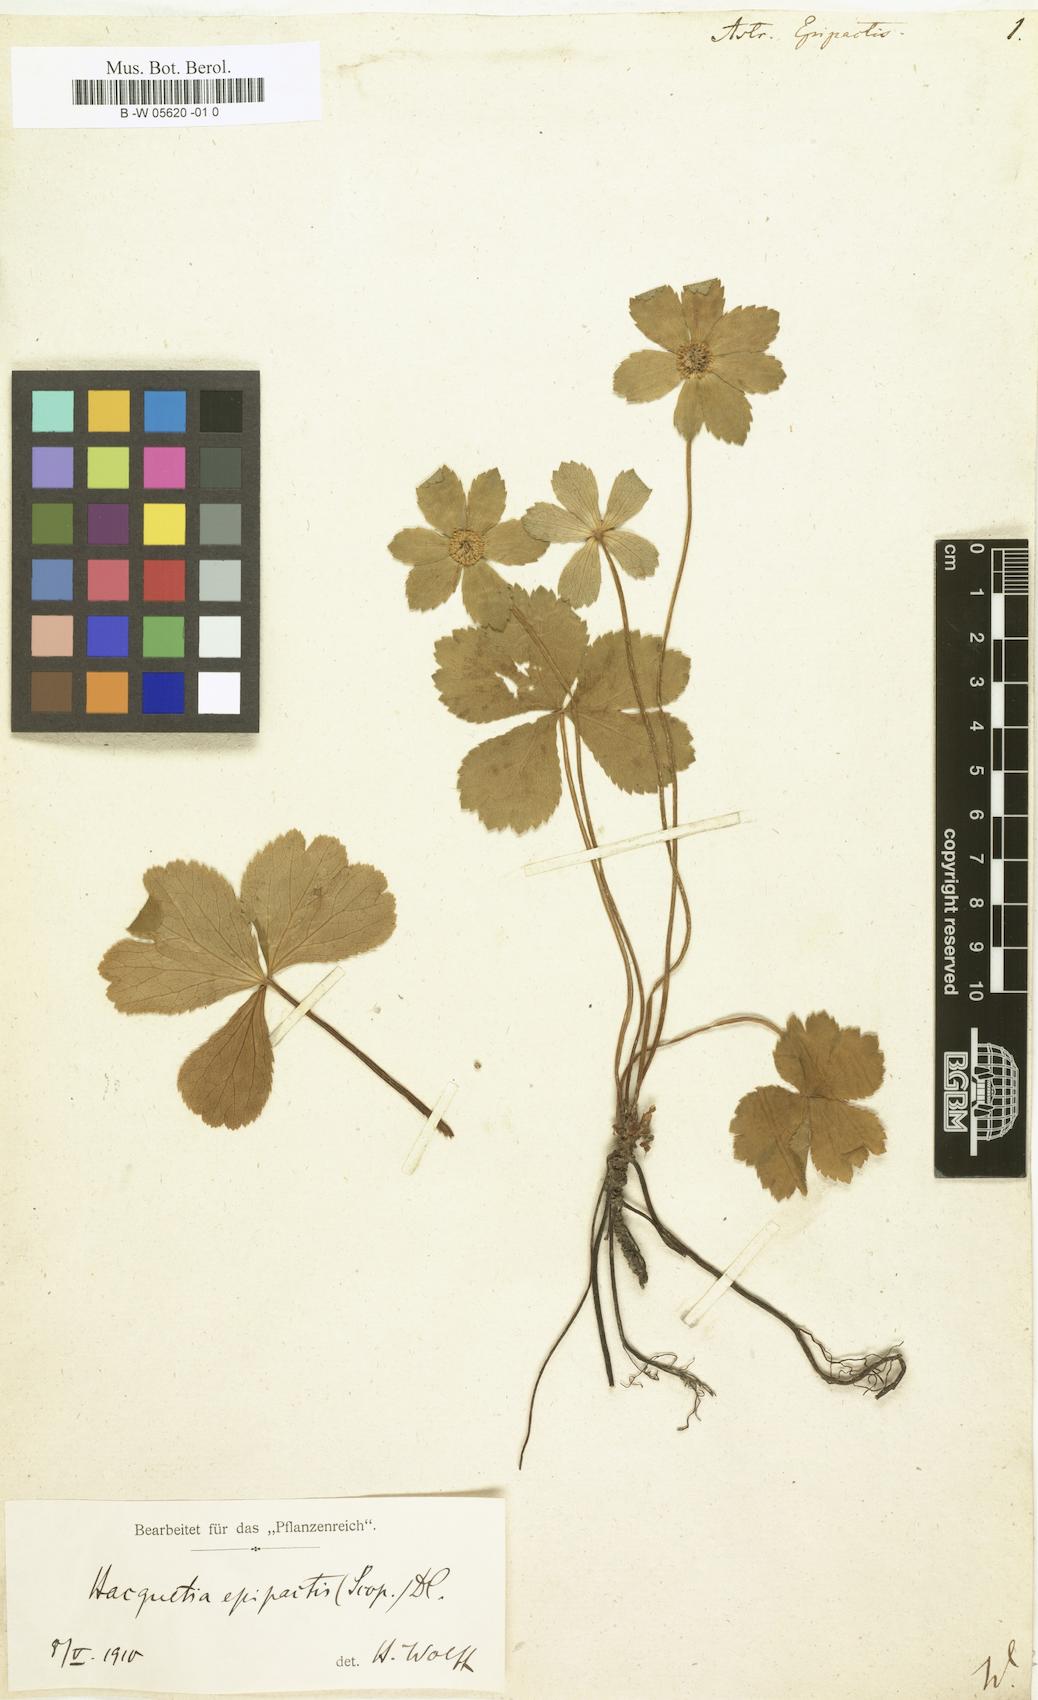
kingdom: Plantae
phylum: Tracheophyta
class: Magnoliopsida
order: Apiales
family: Apiaceae
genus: Sanicula
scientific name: Sanicula epipactis
